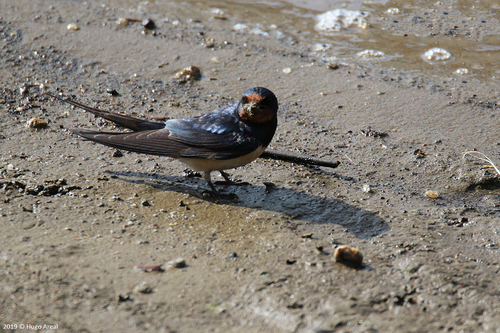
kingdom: Animalia
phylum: Chordata
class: Aves
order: Passeriformes
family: Hirundinidae
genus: Hirundo
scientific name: Hirundo rustica
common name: Barn swallow
